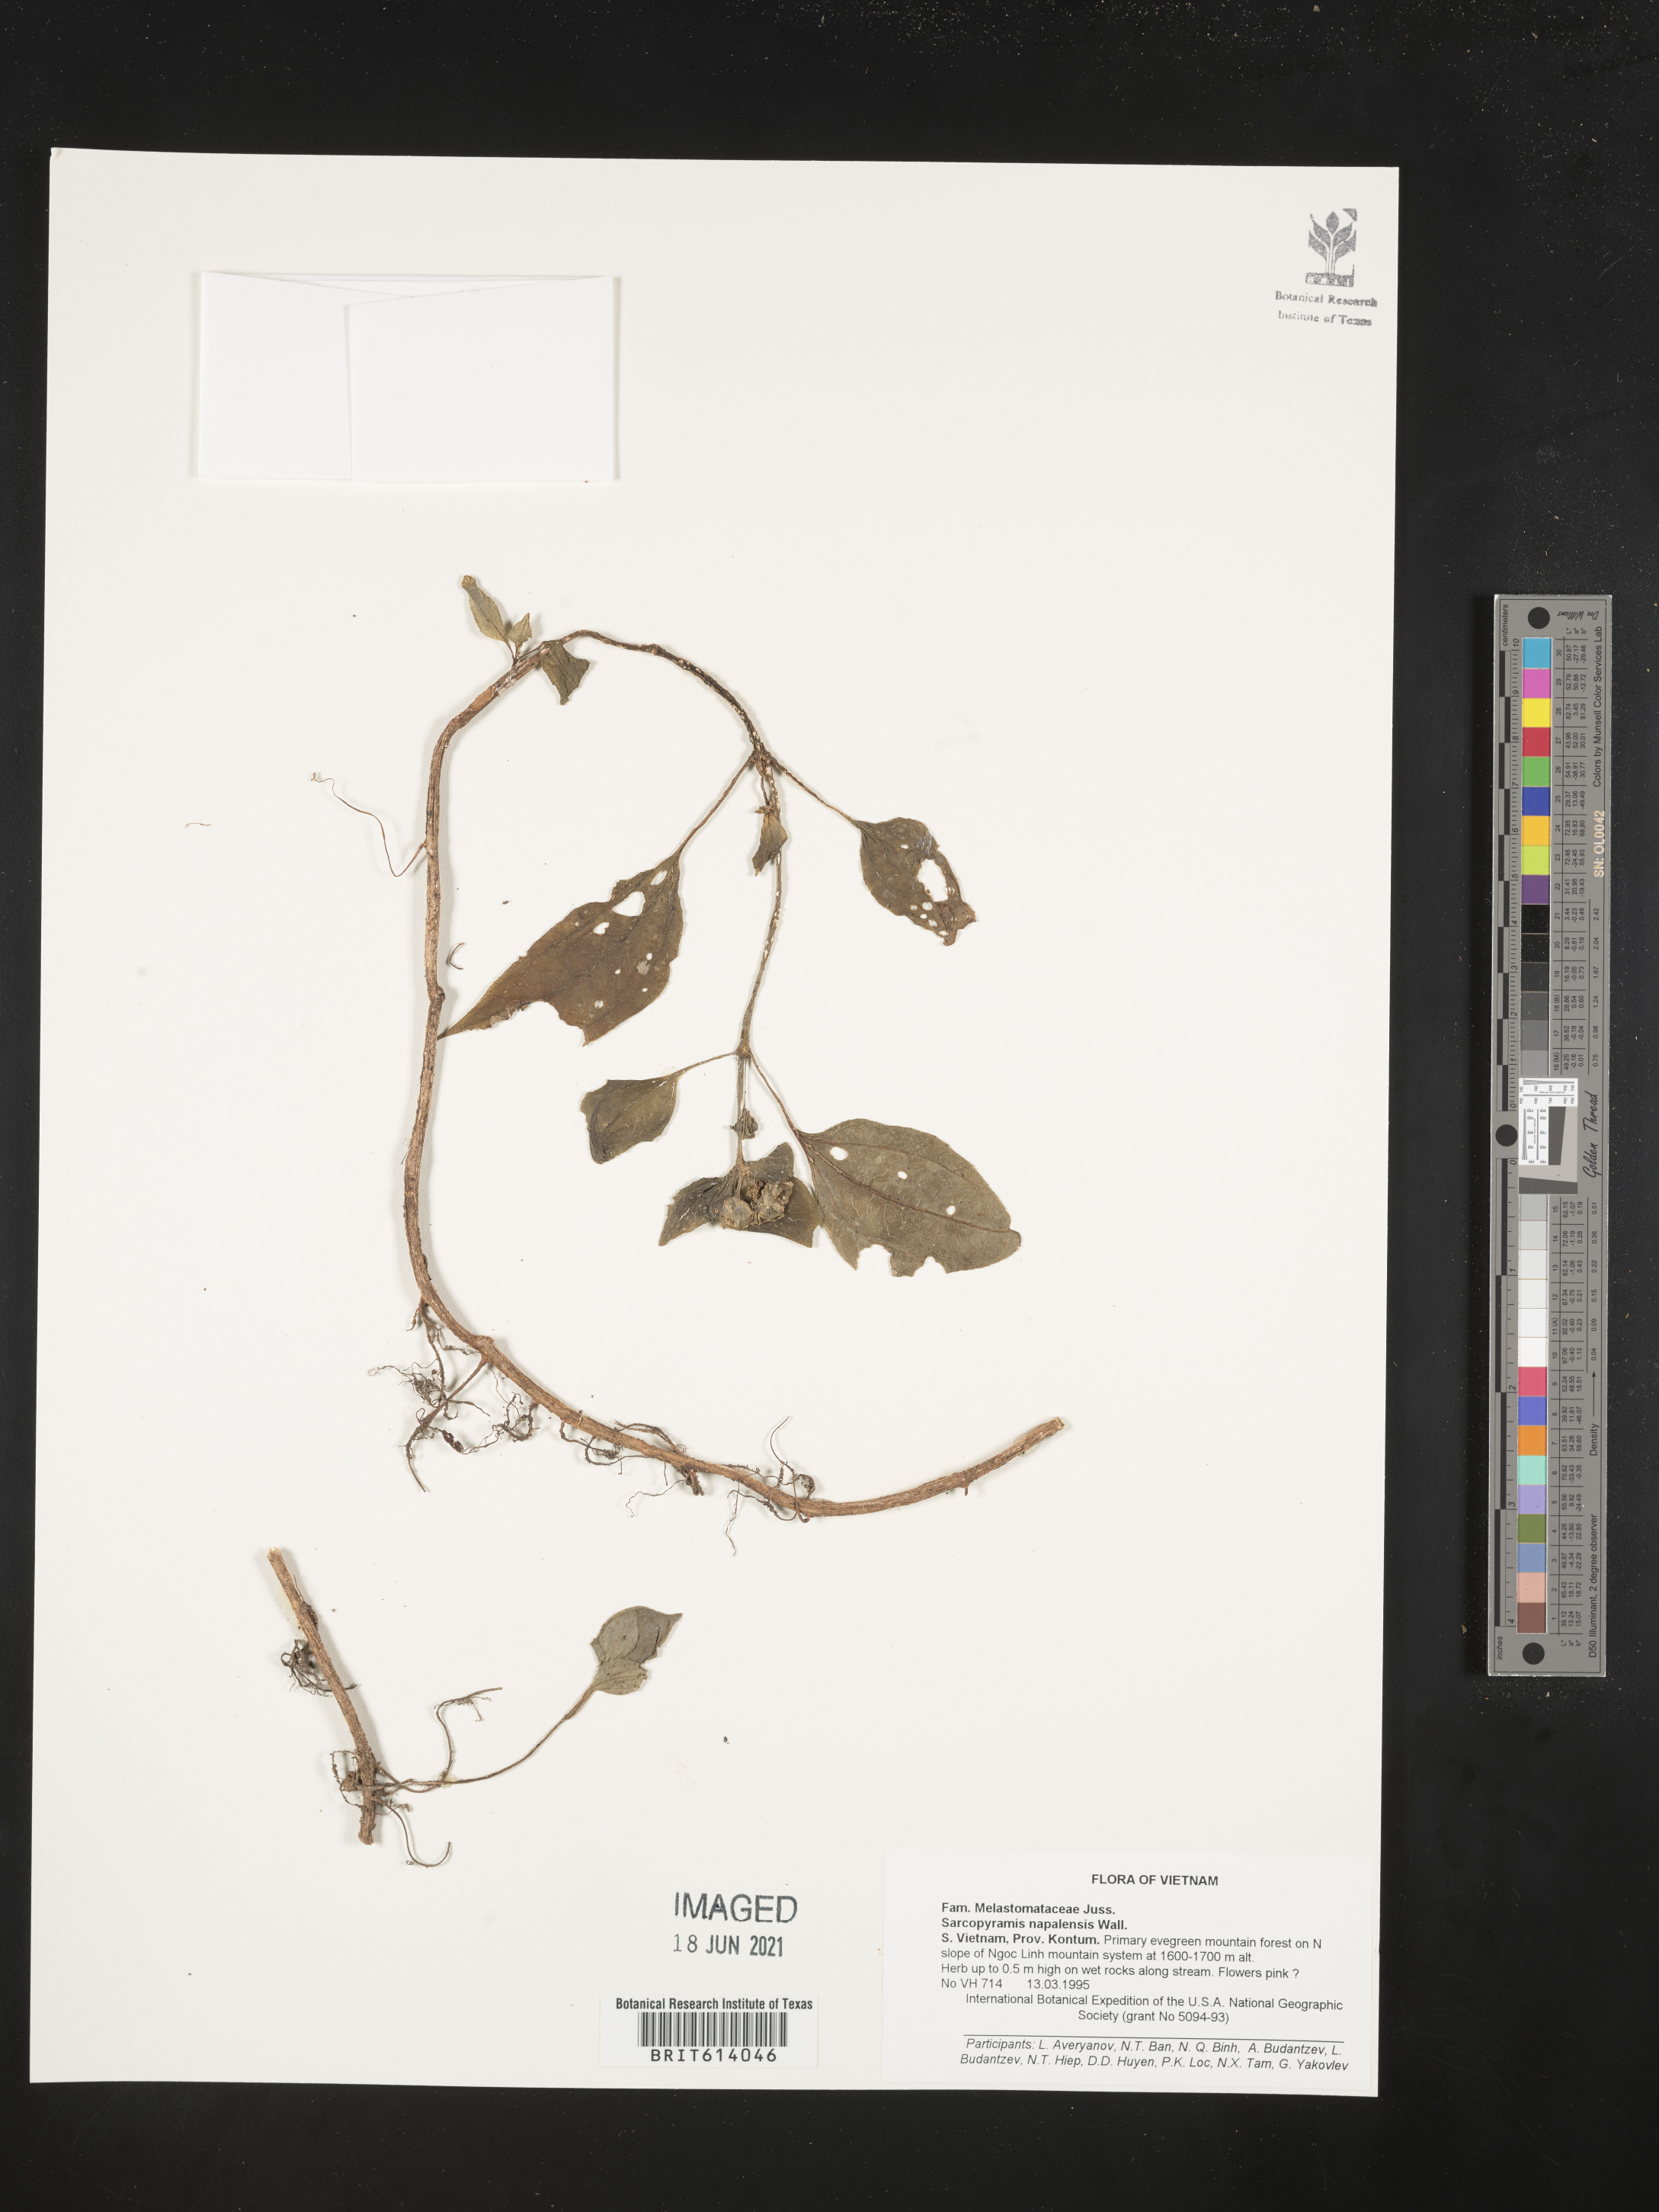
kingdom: Plantae
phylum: Tracheophyta
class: Magnoliopsida
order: Myrtales
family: Melastomataceae
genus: Sarcopyramis
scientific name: Sarcopyramis napalensis
